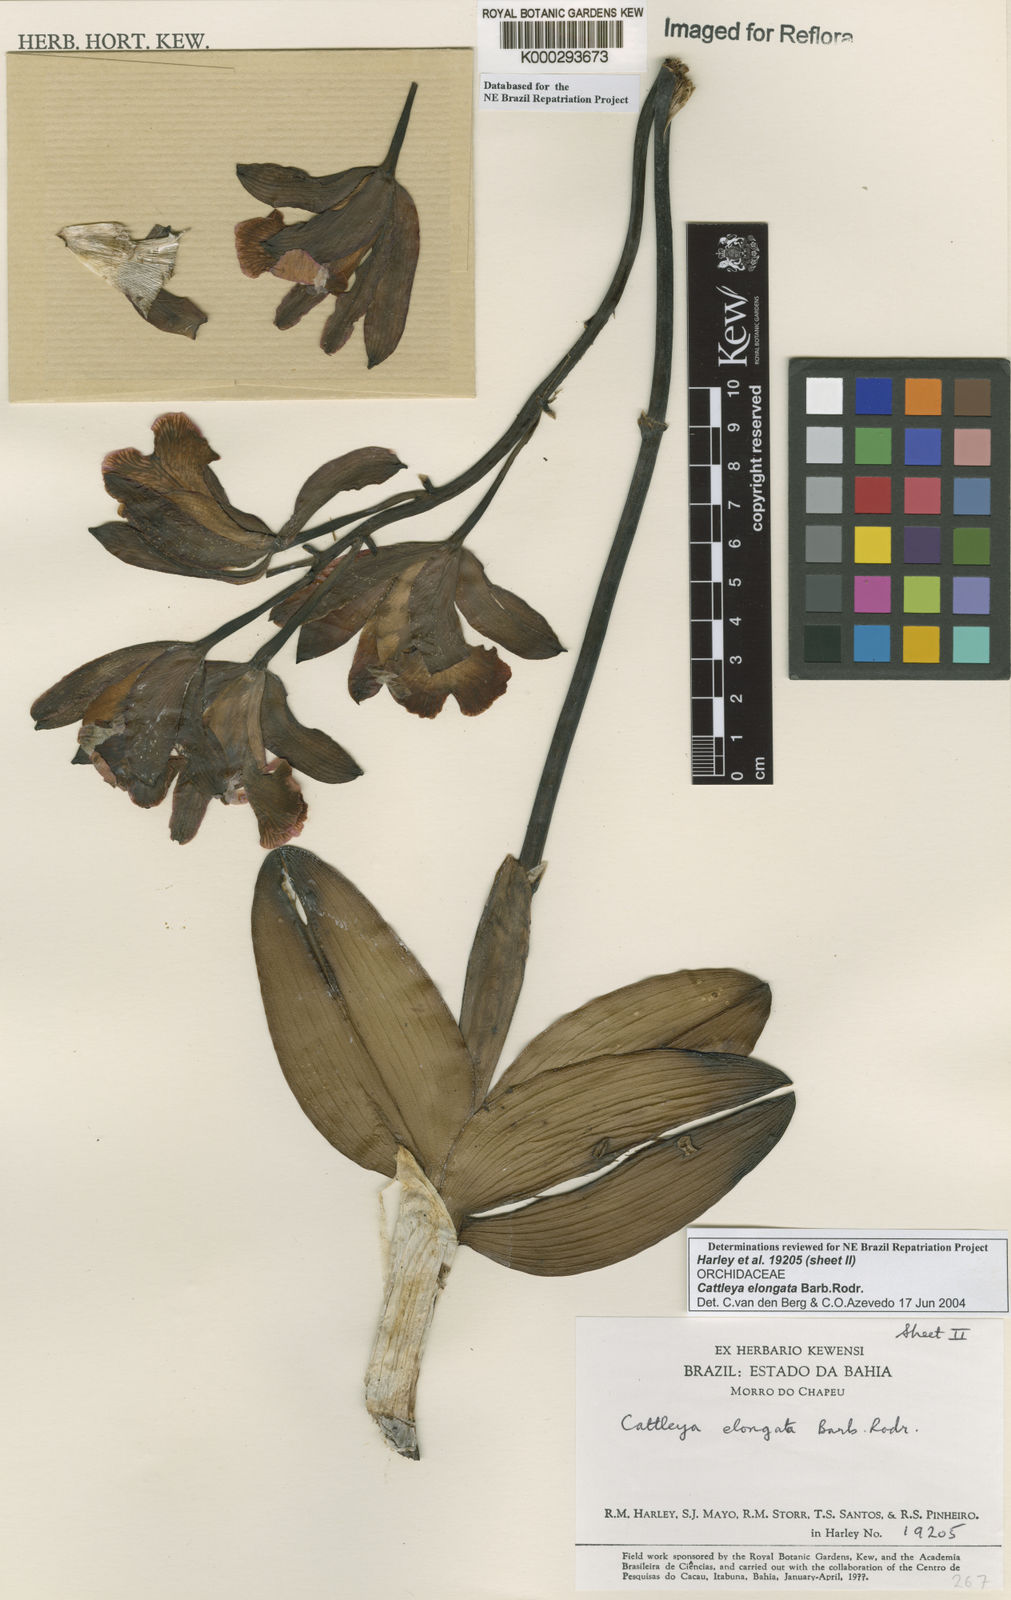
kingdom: Plantae
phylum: Tracheophyta
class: Liliopsida
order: Asparagales
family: Orchidaceae
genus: Cattleya
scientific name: Cattleya elongata
